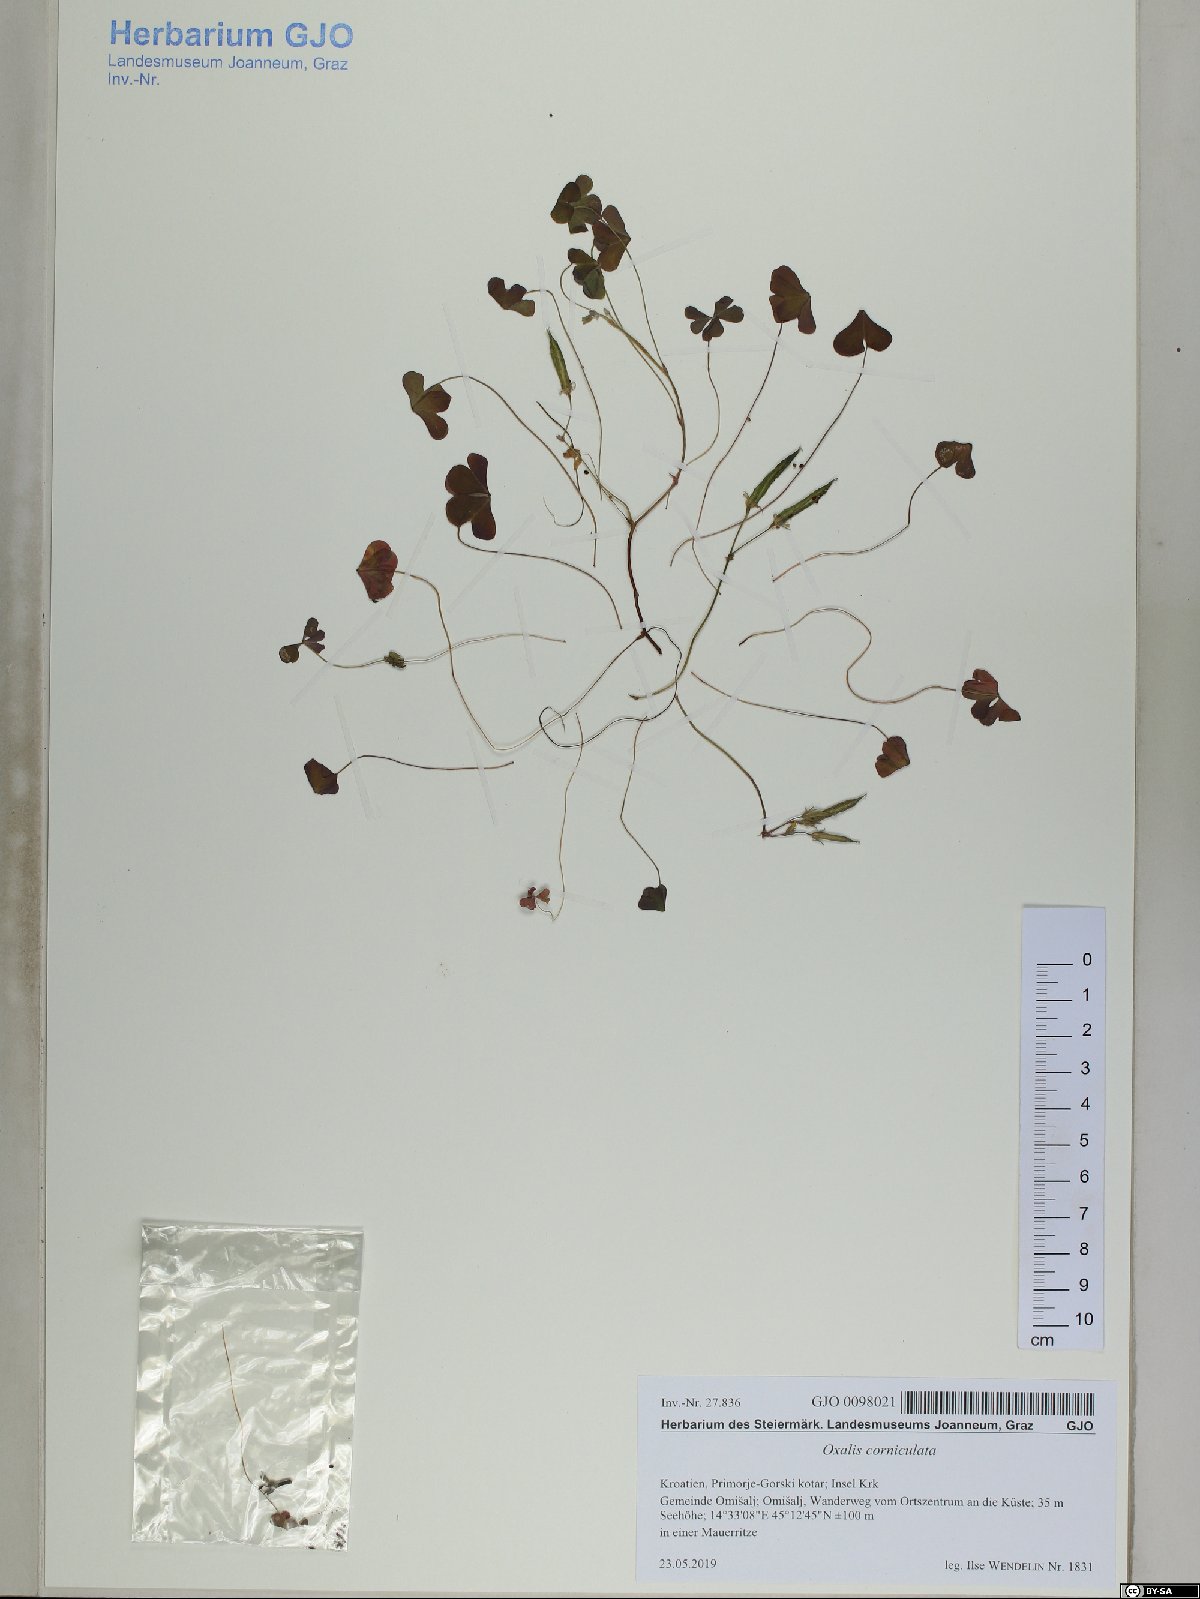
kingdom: Plantae
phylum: Tracheophyta
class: Magnoliopsida
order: Oxalidales
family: Oxalidaceae
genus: Oxalis
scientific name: Oxalis corniculata
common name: Procumbent yellow-sorrel
